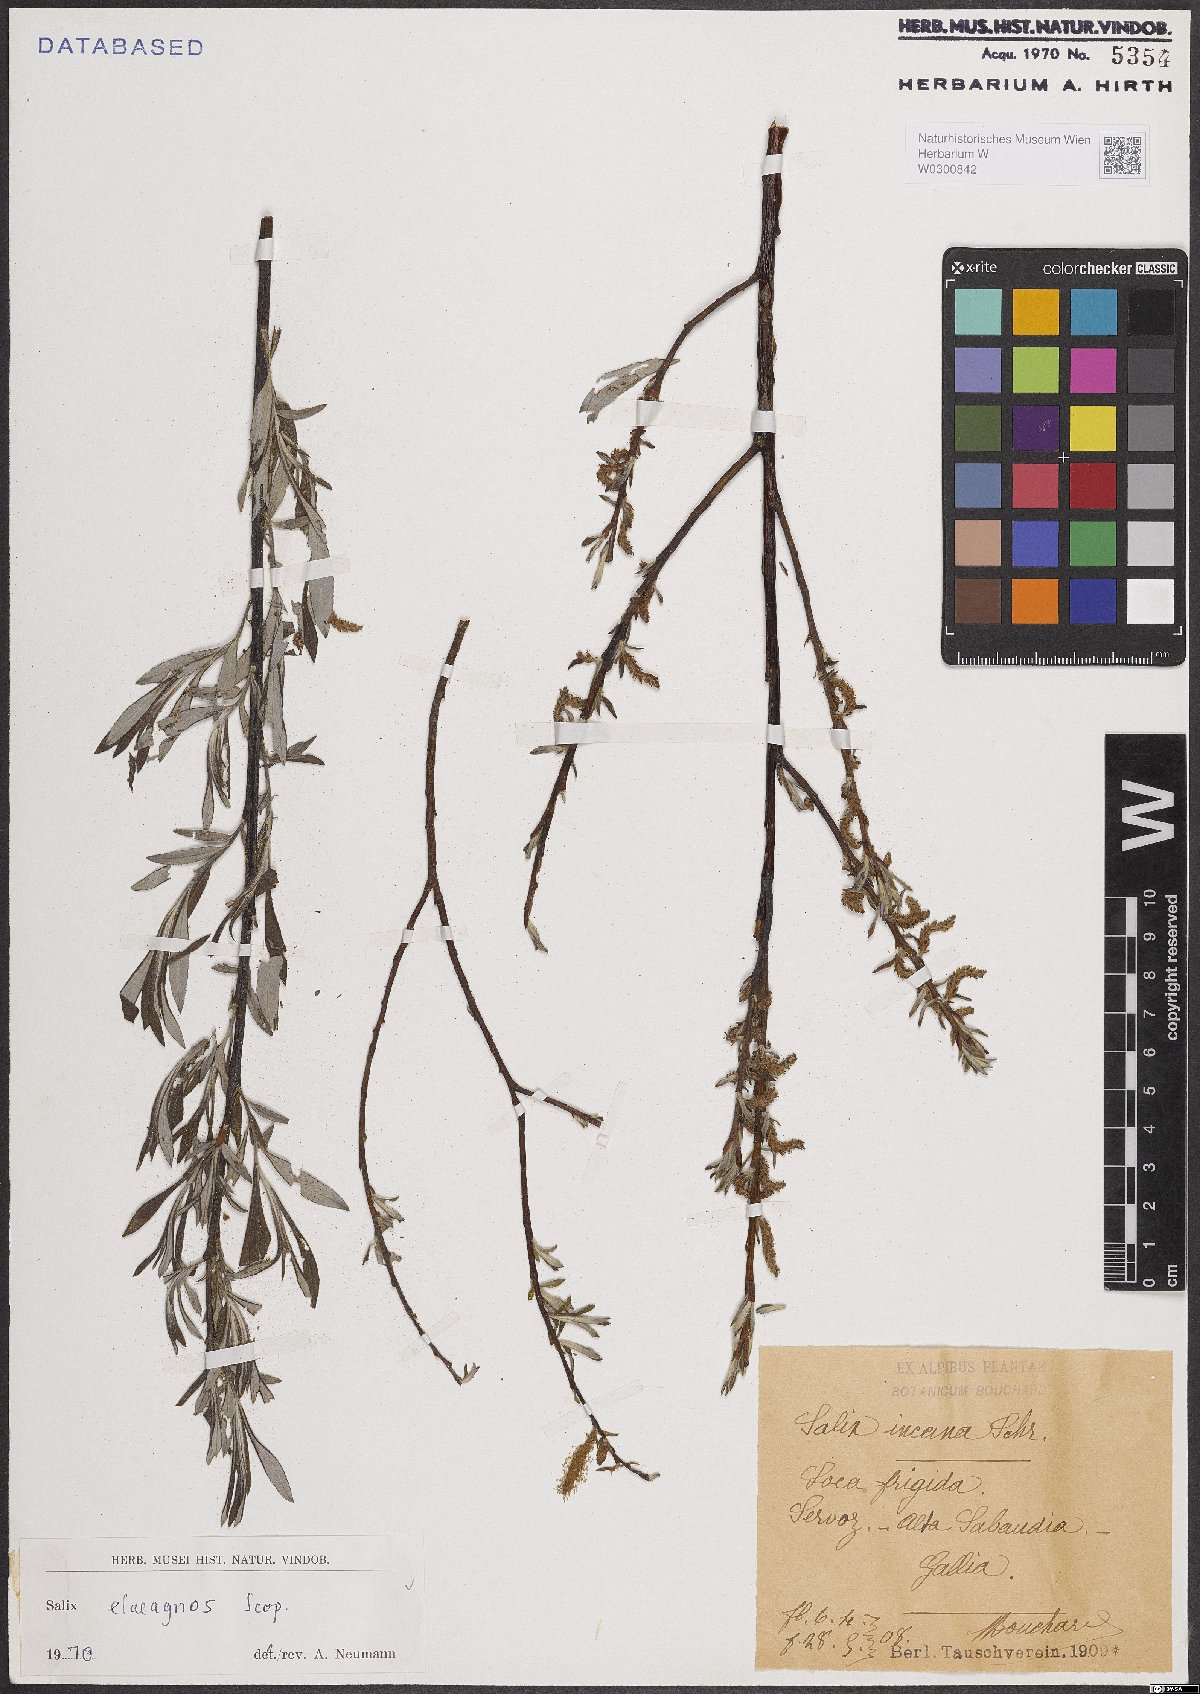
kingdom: Plantae
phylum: Tracheophyta
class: Magnoliopsida
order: Malpighiales
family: Salicaceae
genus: Salix
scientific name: Salix eleagnos
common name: Elaeagnus willow
